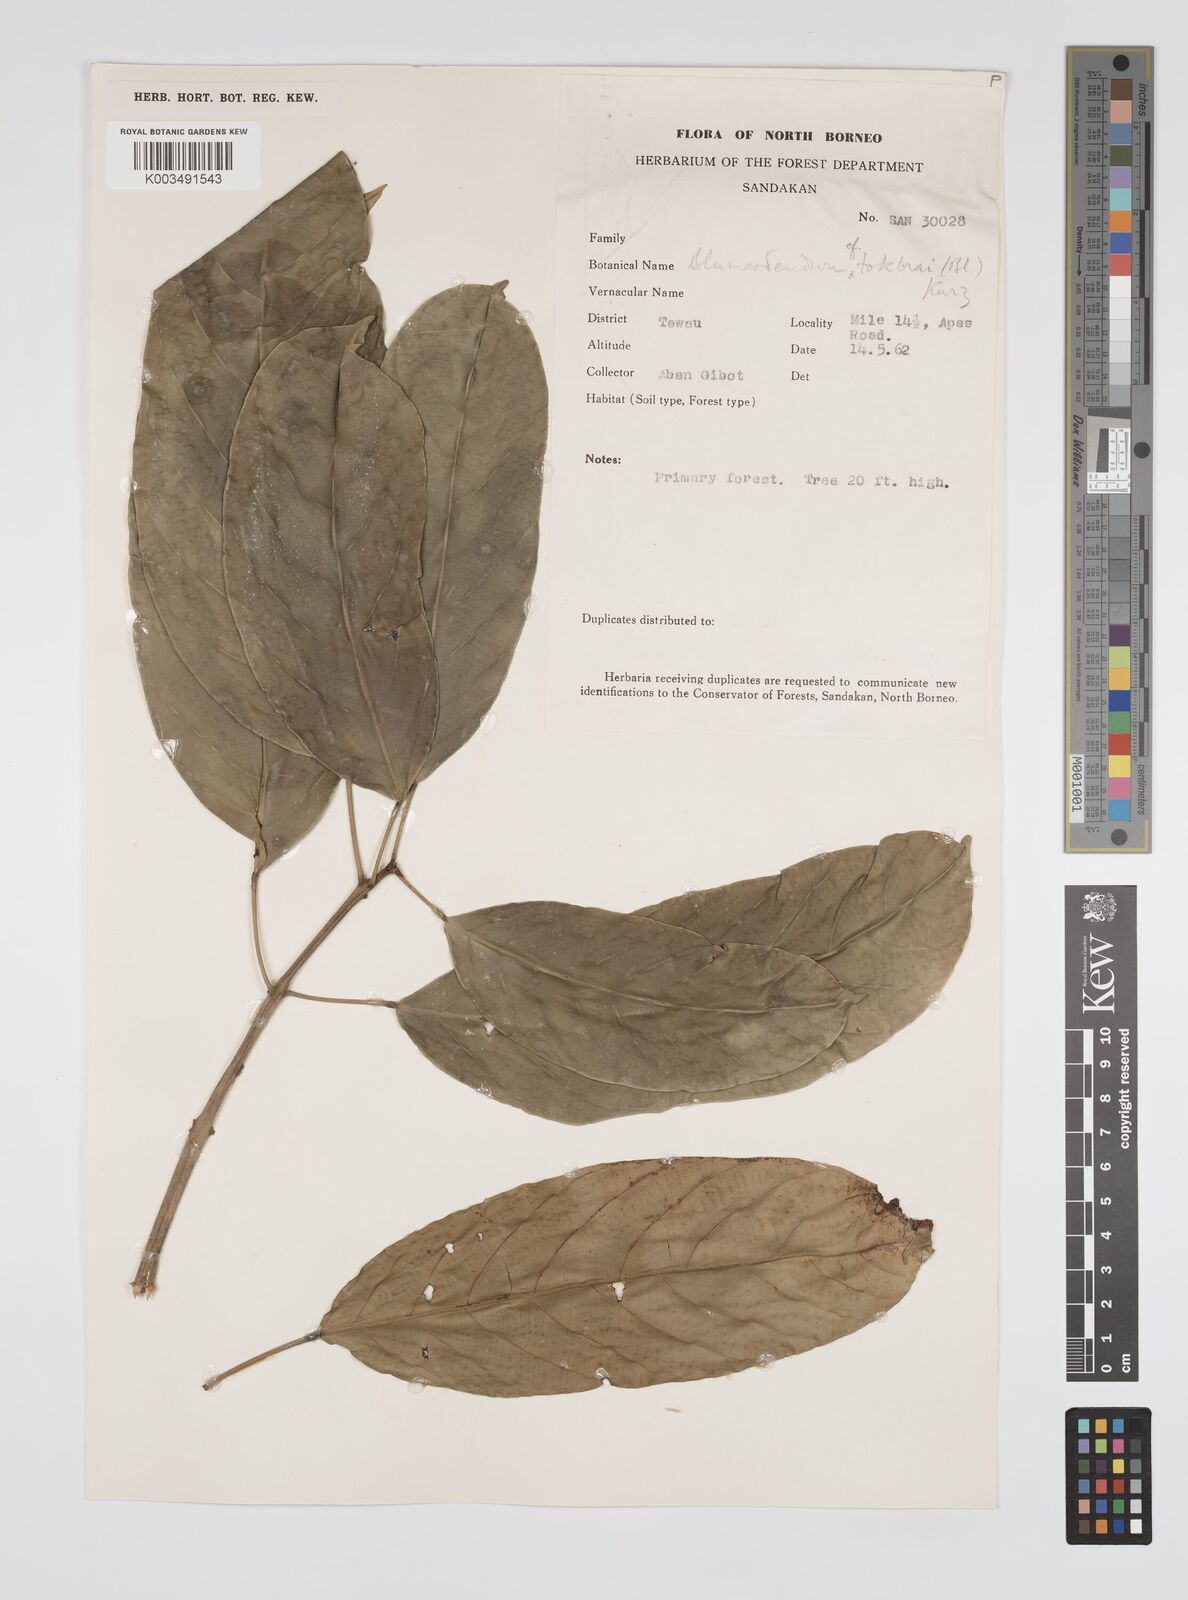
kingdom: Plantae
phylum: Tracheophyta
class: Magnoliopsida
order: Malpighiales
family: Euphorbiaceae
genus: Blumeodendron
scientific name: Blumeodendron tokbrai
